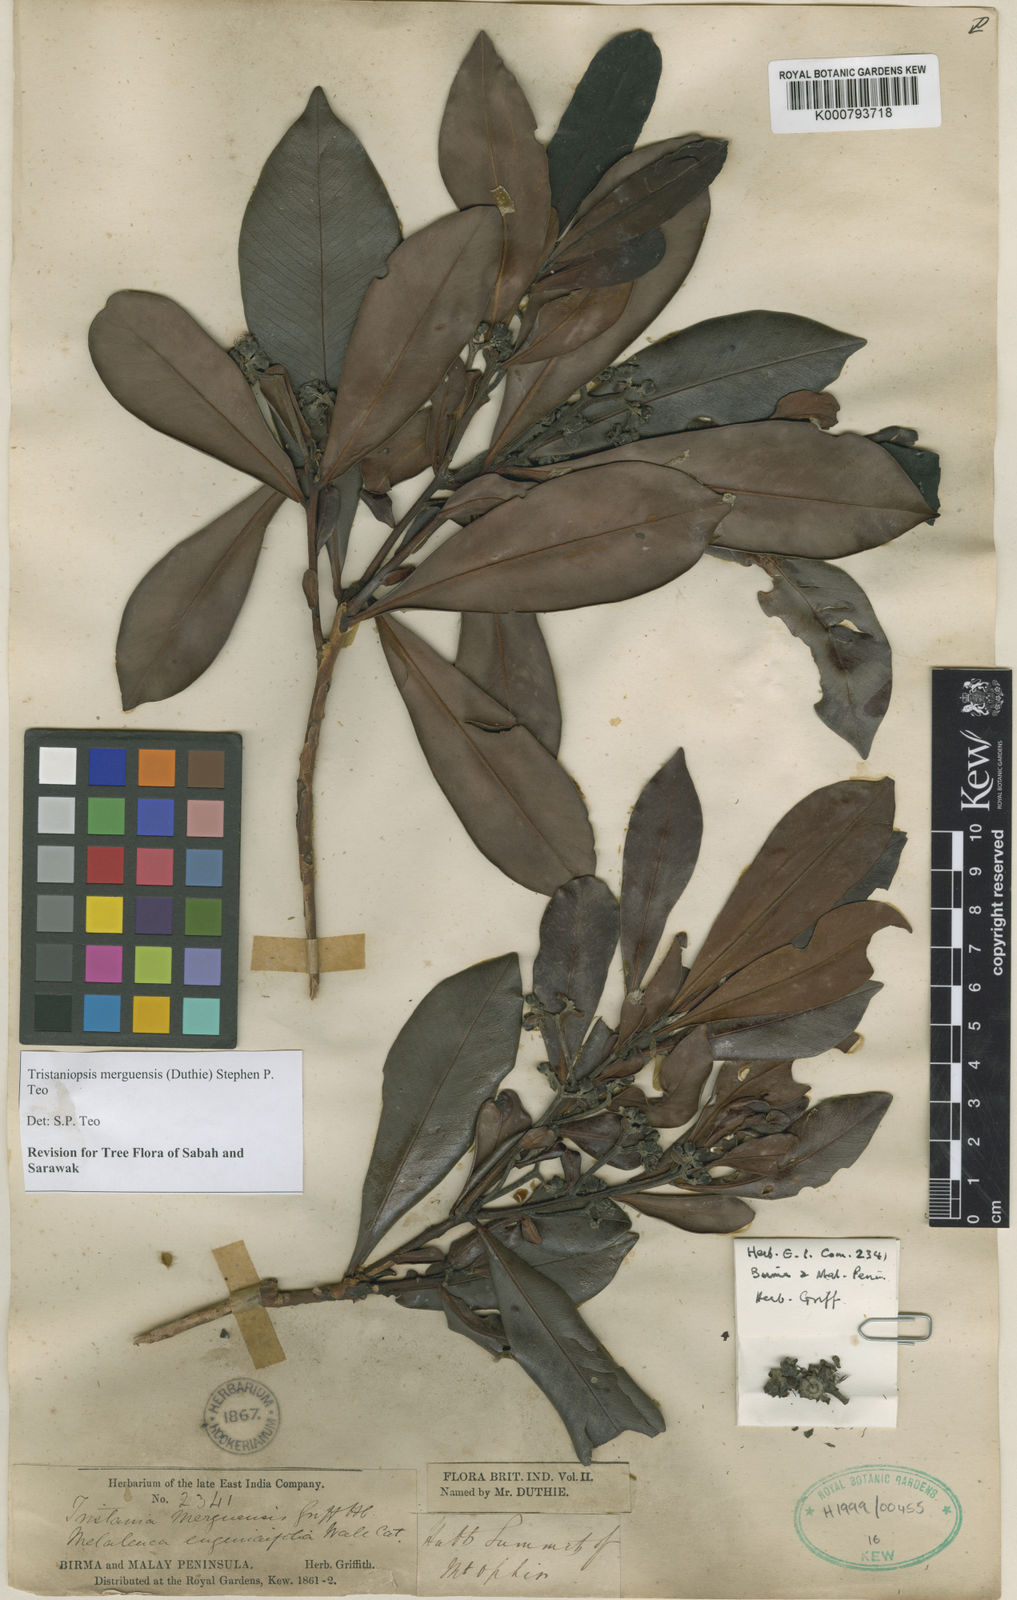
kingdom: Plantae
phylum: Tracheophyta
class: Magnoliopsida
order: Myrtales
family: Myrtaceae
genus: Tristaniopsis
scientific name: Tristaniopsis
